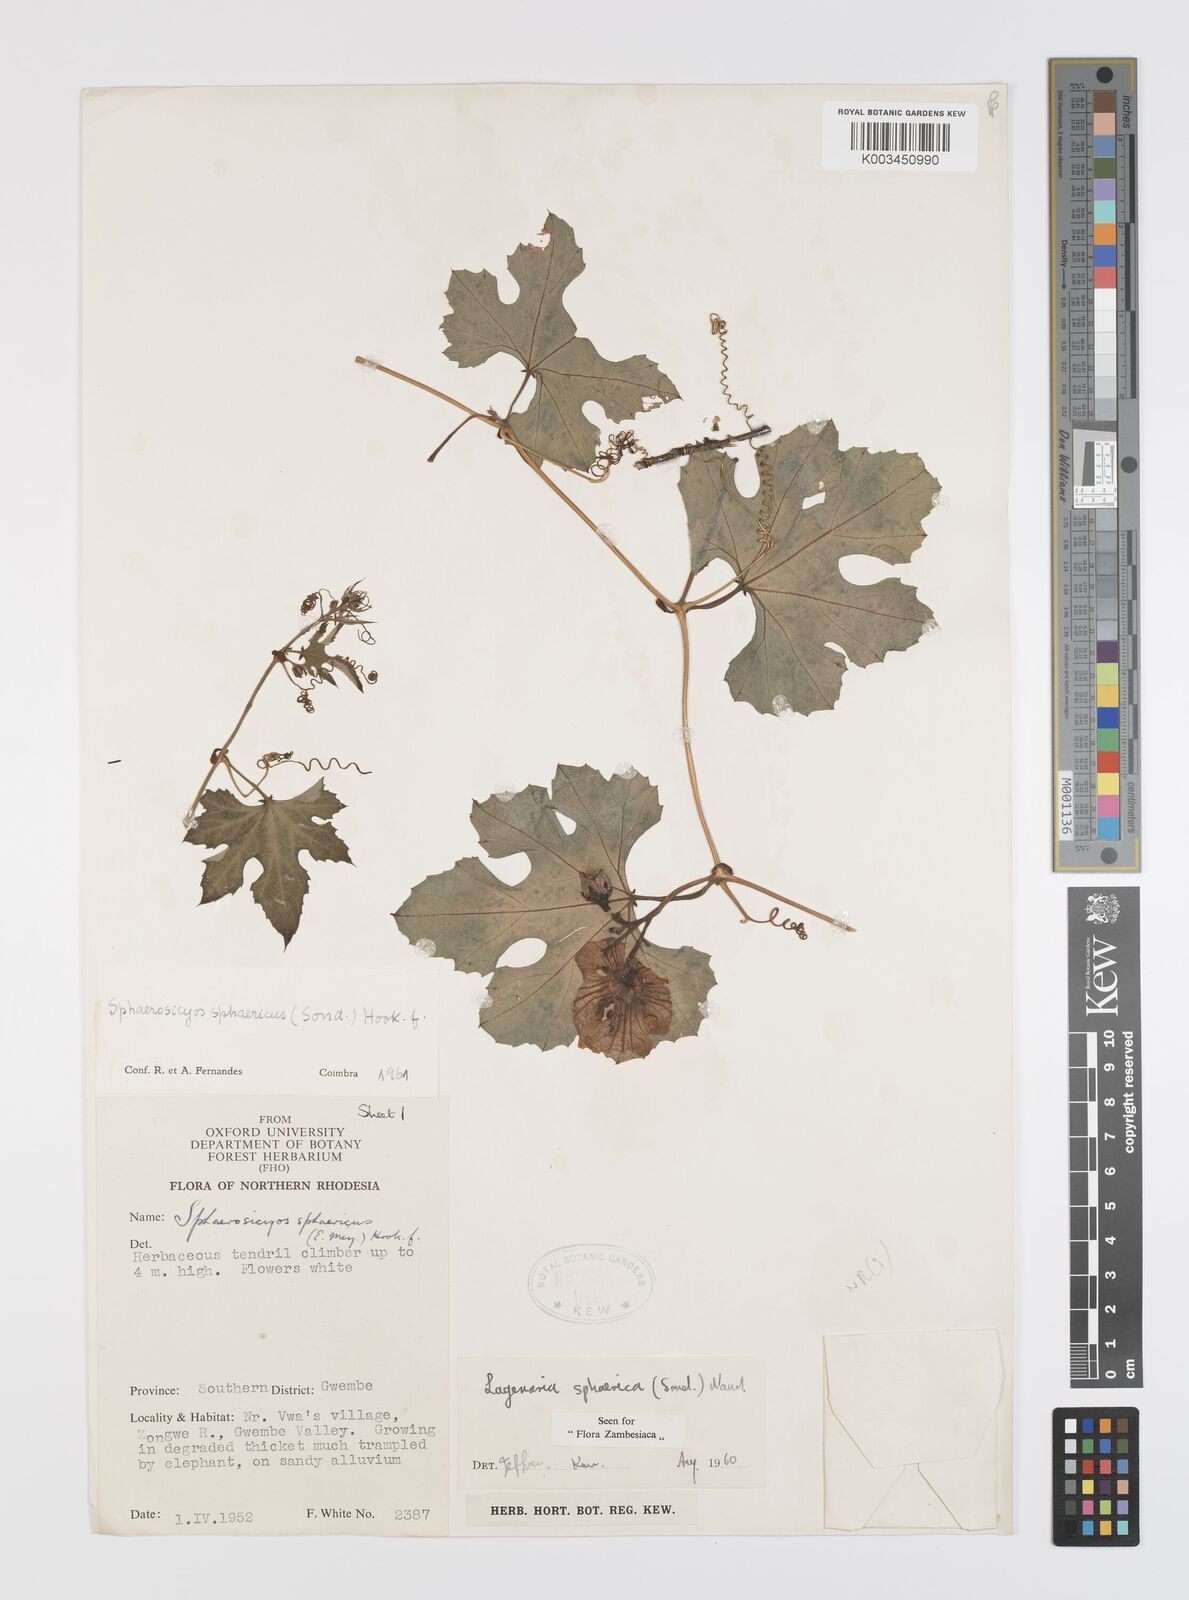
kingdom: Plantae
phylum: Tracheophyta
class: Magnoliopsida
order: Cucurbitales
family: Cucurbitaceae
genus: Lagenaria
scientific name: Lagenaria sphaerica
